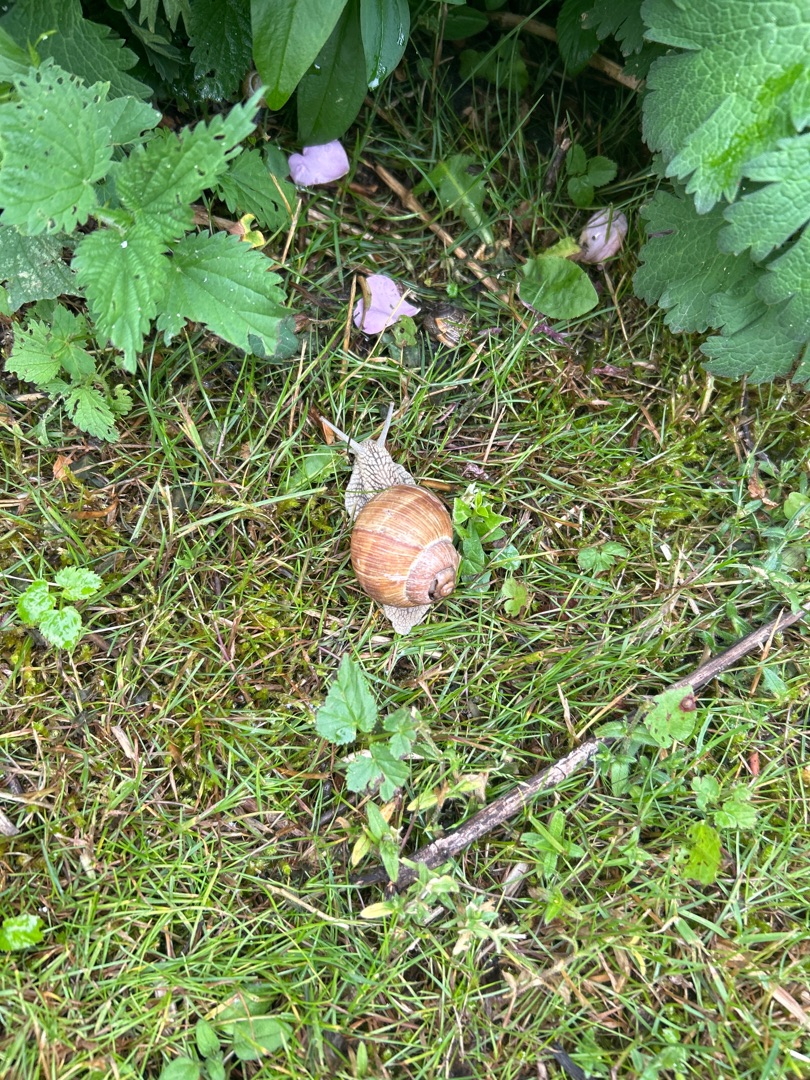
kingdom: Animalia
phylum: Mollusca
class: Gastropoda
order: Stylommatophora
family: Helicidae
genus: Helix
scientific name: Helix pomatia
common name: Vinbjergsnegl
